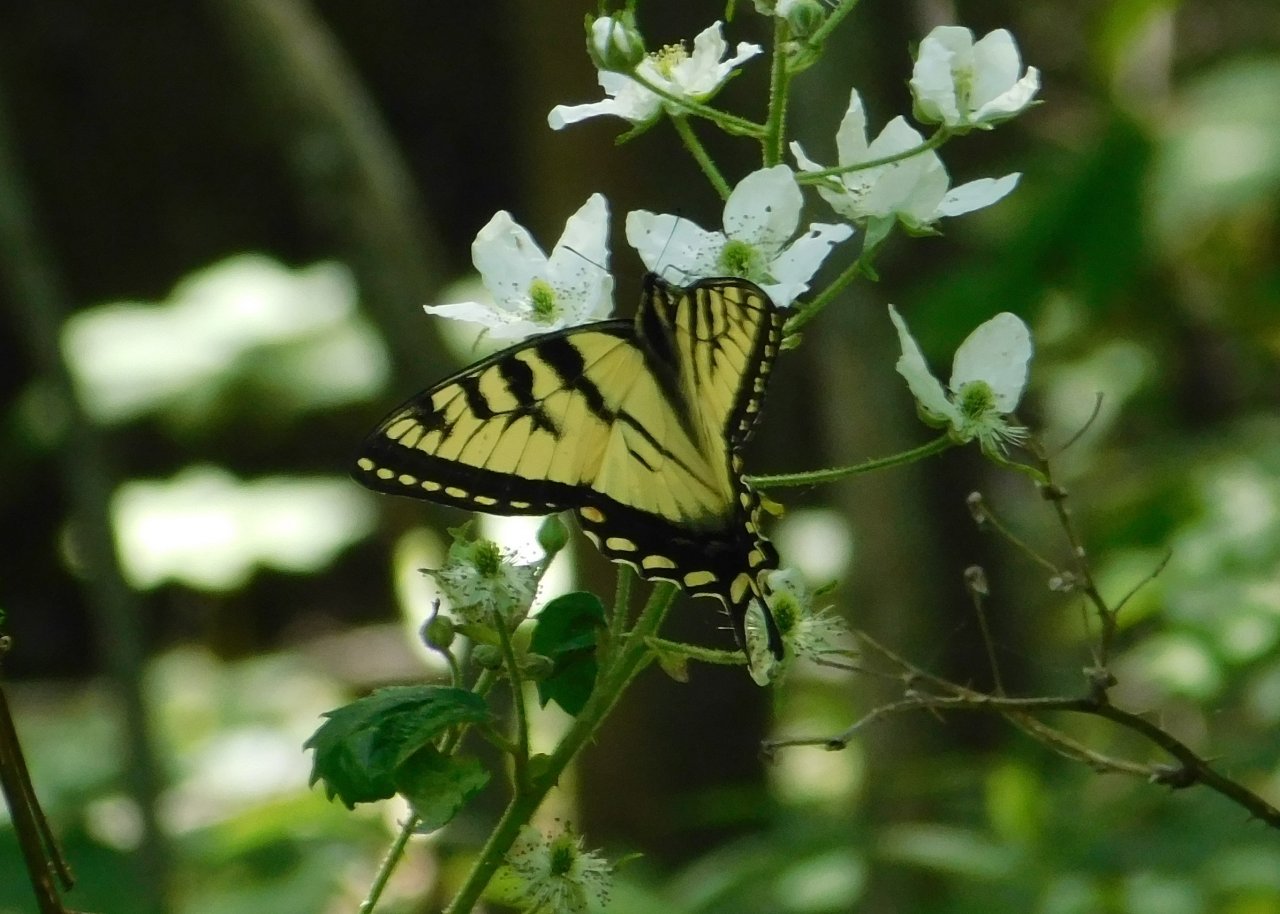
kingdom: Animalia
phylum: Arthropoda
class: Insecta
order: Lepidoptera
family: Papilionidae
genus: Pterourus
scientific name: Pterourus canadensis
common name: Canadian Tiger Swallowtail
